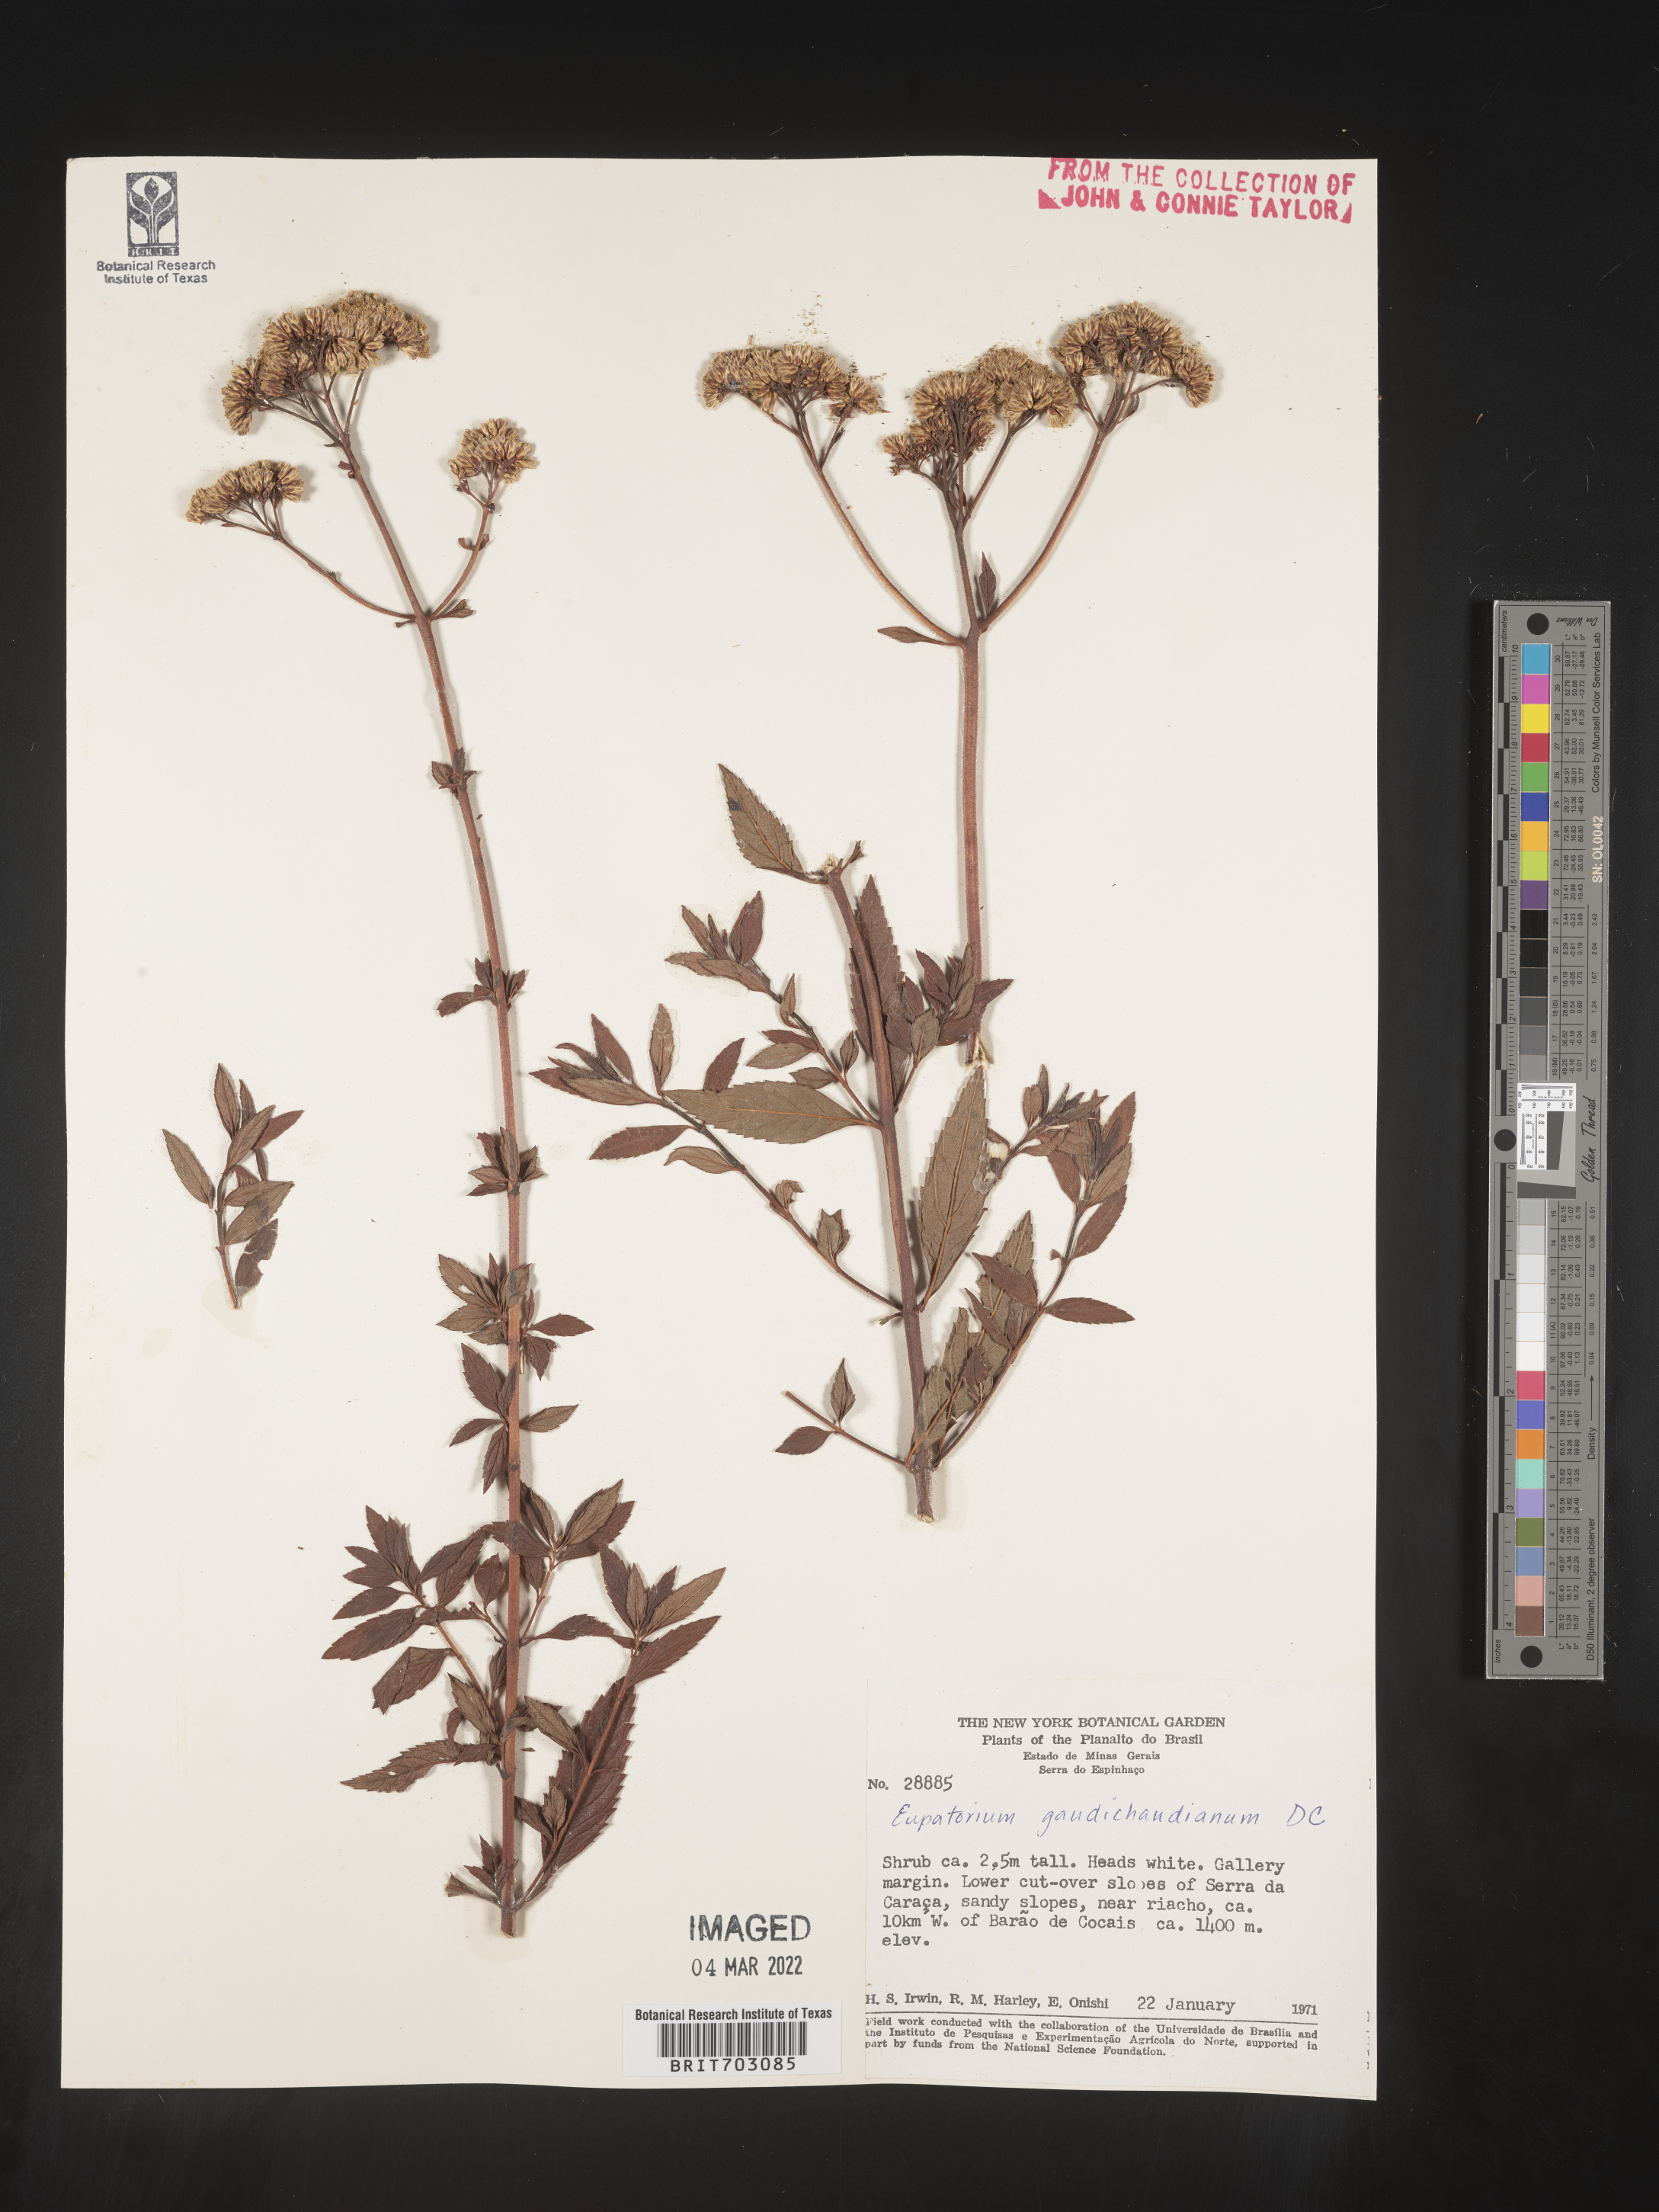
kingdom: Plantae
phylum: Tracheophyta
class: Magnoliopsida
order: Asterales
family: Asteraceae
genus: Eupatorium
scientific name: Eupatorium
